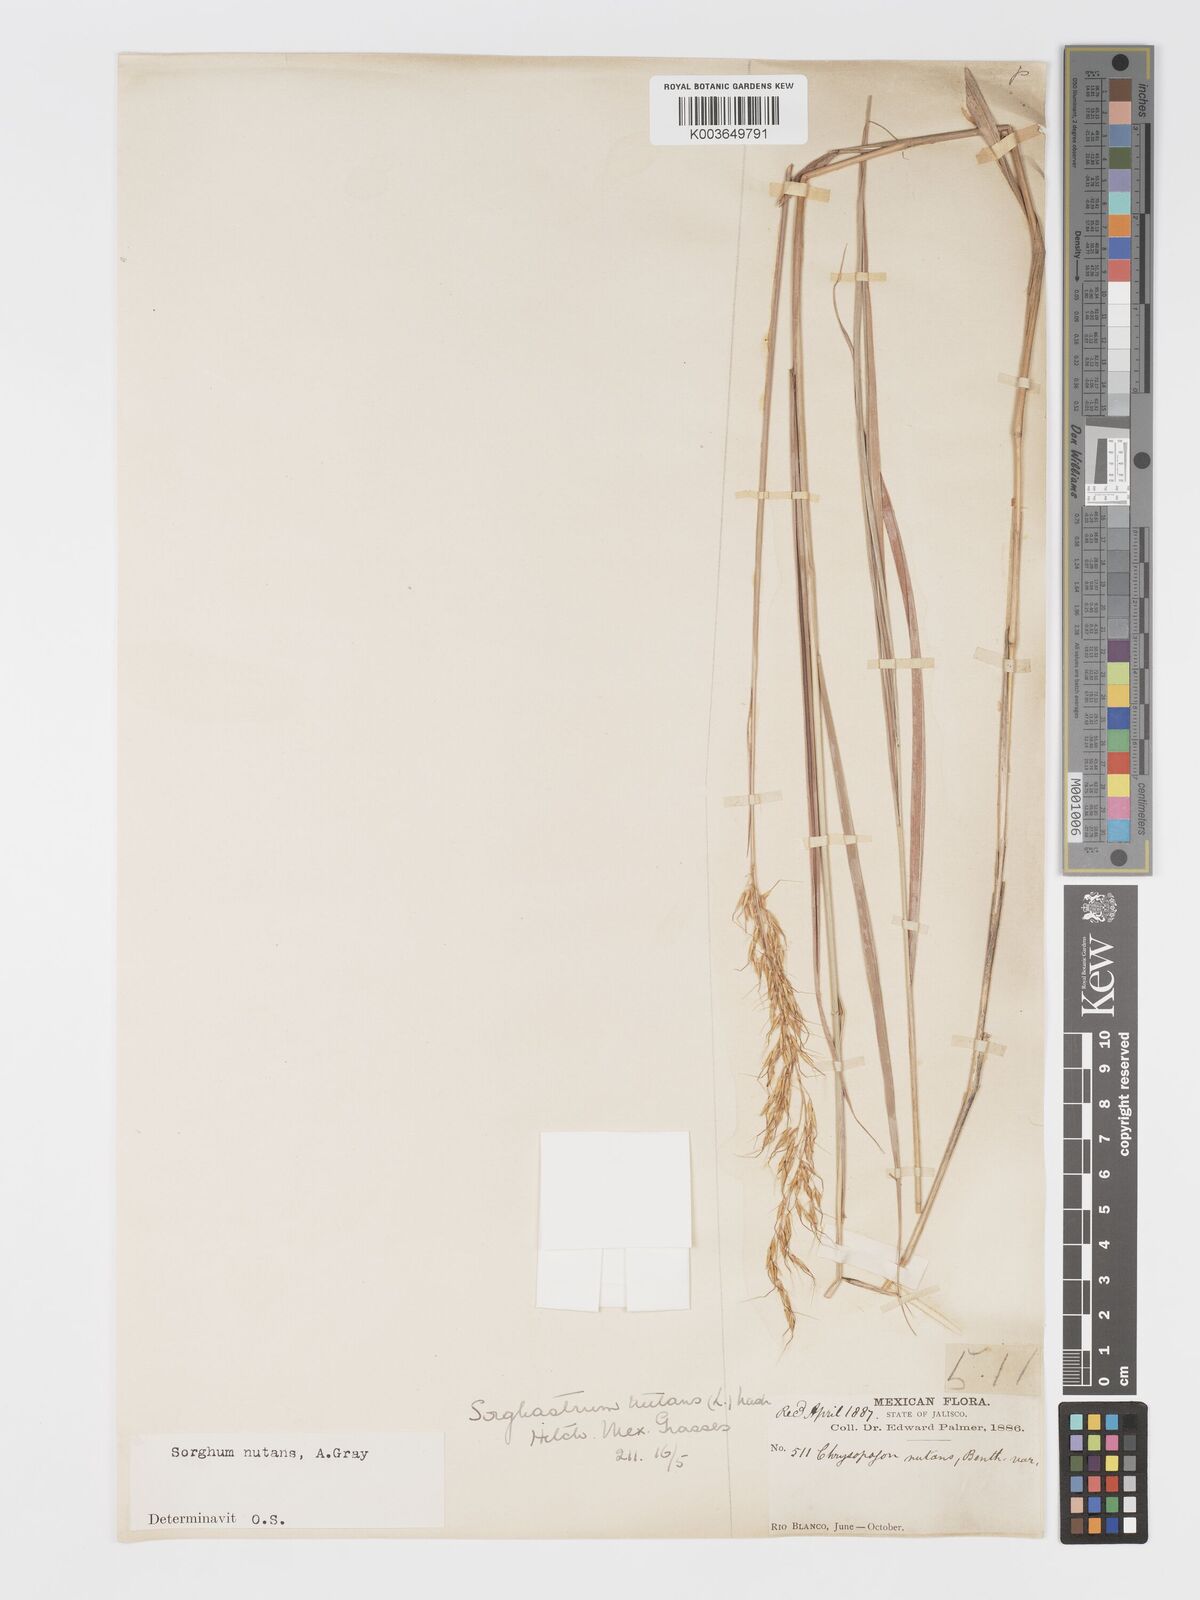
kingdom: Plantae
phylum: Tracheophyta
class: Liliopsida
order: Poales
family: Poaceae
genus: Sorghastrum
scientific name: Sorghastrum nutans
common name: Indian grass
